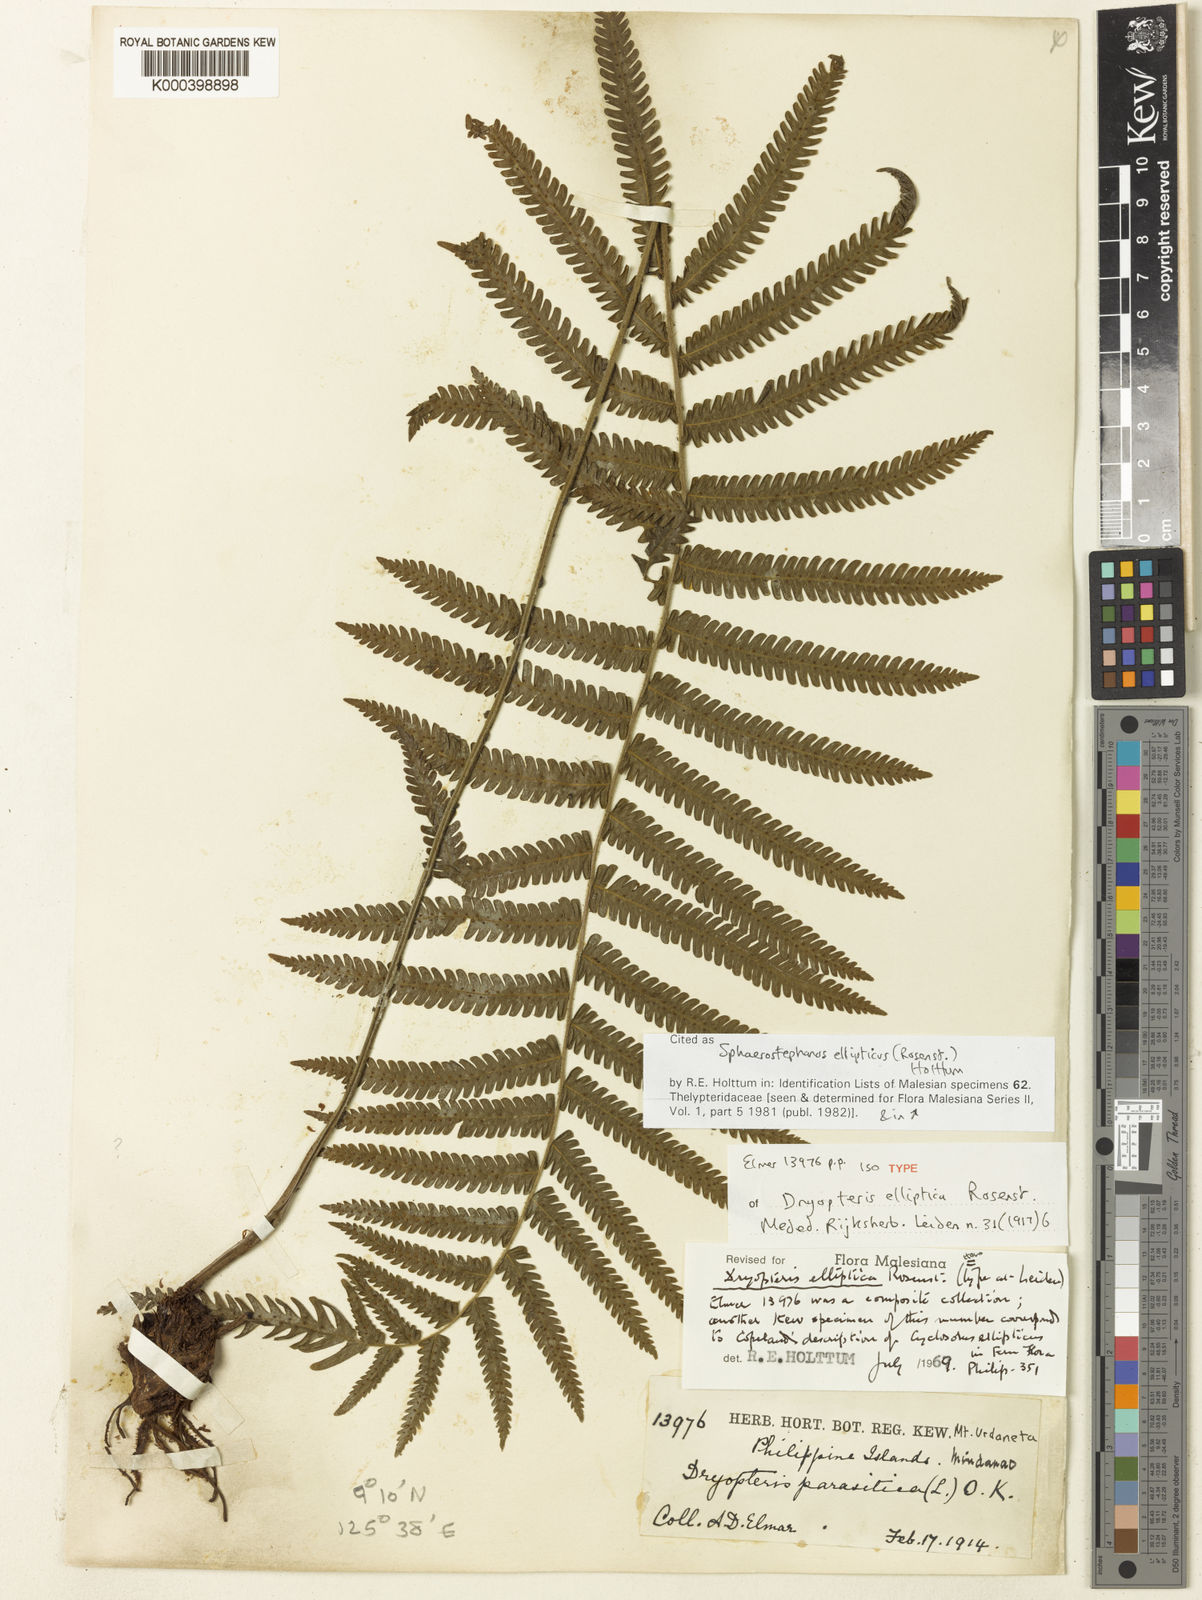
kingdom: Plantae
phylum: Tracheophyta
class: Polypodiopsida
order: Polypodiales
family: Thelypteridaceae
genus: Sphaerostephanos
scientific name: Sphaerostephanos ellipticus
